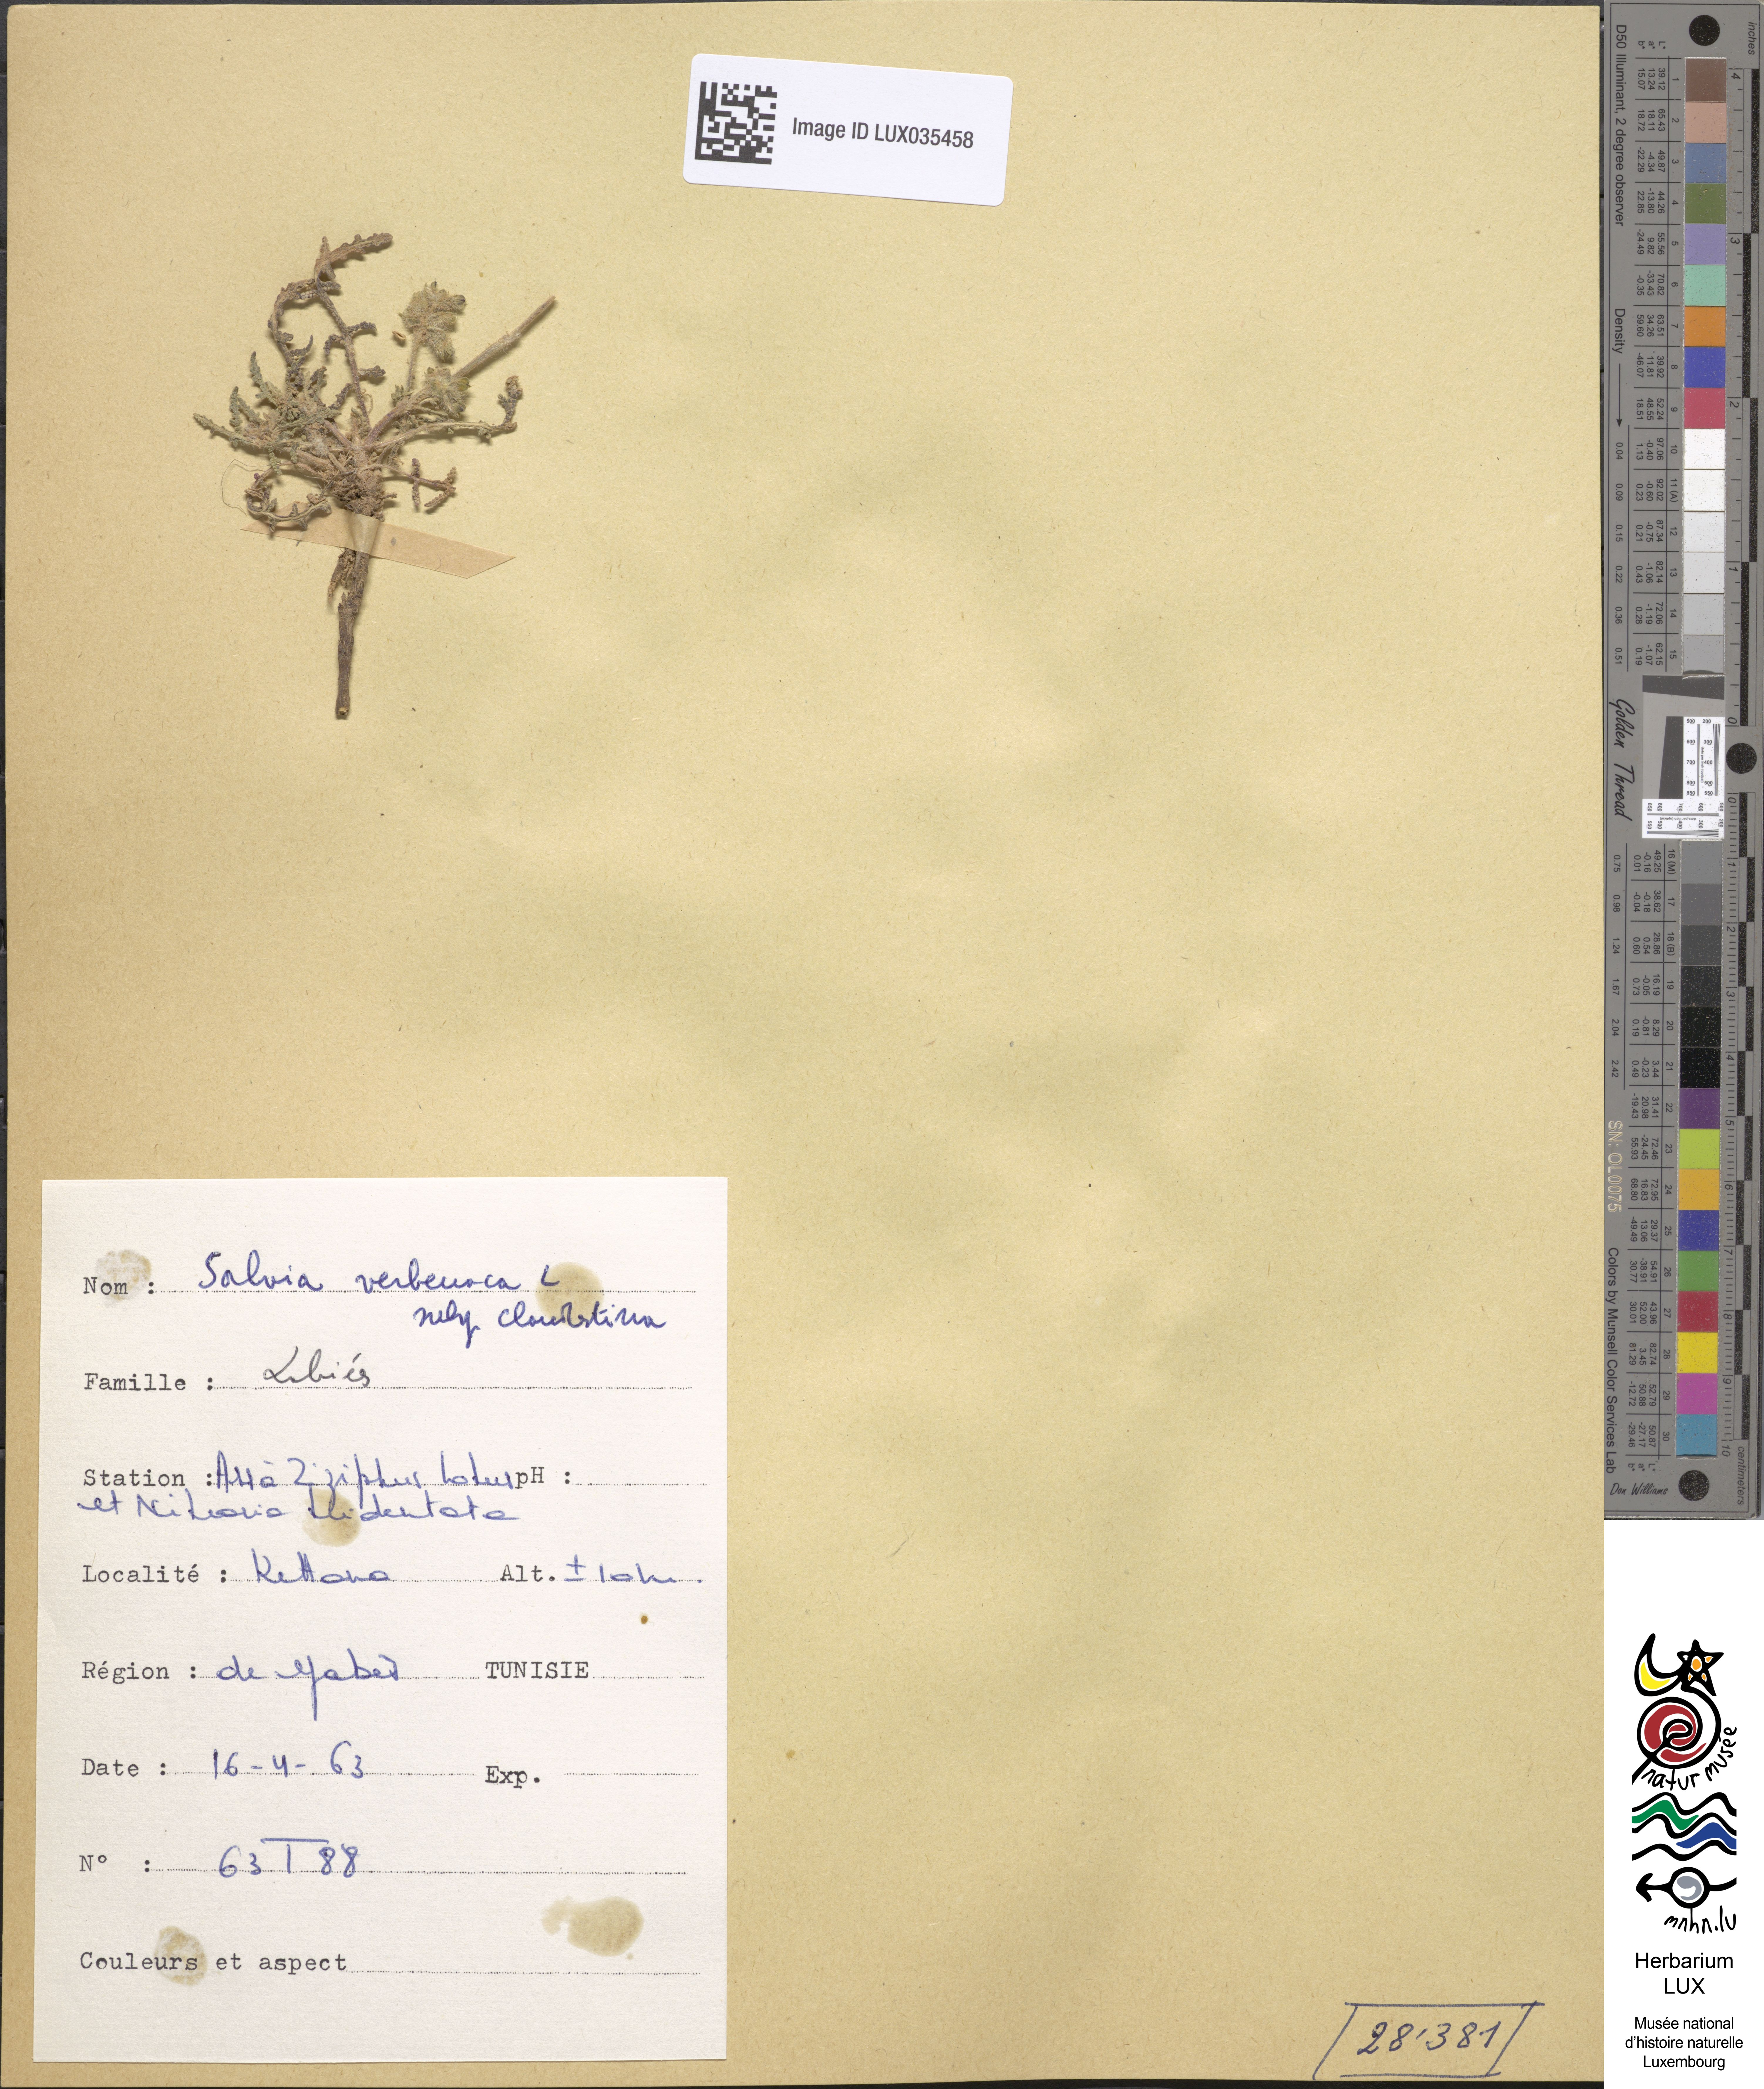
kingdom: Plantae
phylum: Tracheophyta
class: Magnoliopsida
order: Lamiales
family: Lamiaceae
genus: Salvia
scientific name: Salvia verbenaca
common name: Wild clary
